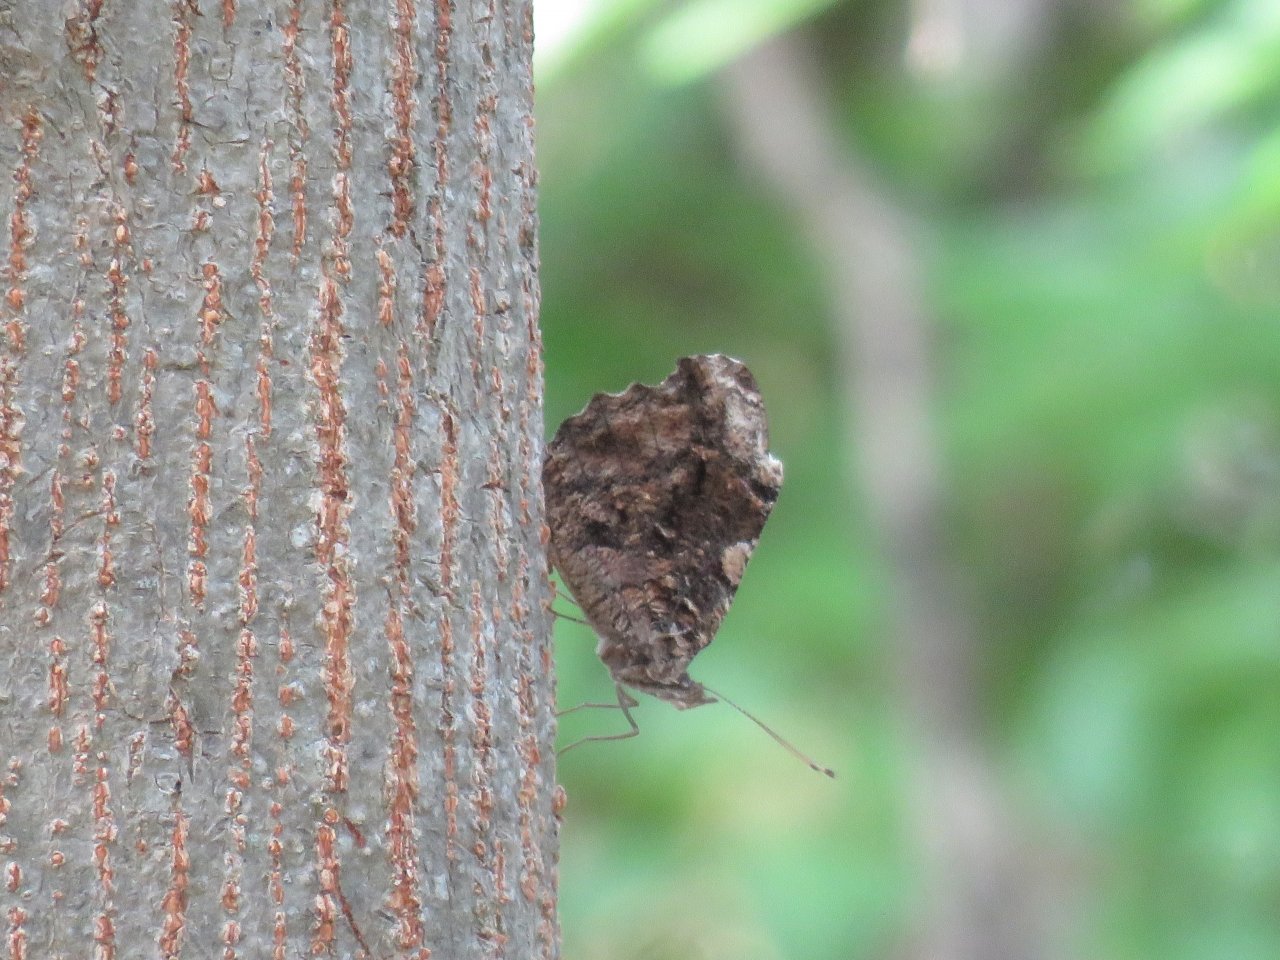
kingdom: Animalia
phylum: Arthropoda
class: Insecta
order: Lepidoptera
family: Nymphalidae
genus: Myscelia
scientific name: Myscelia ethusa
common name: Mexican Bluewing
